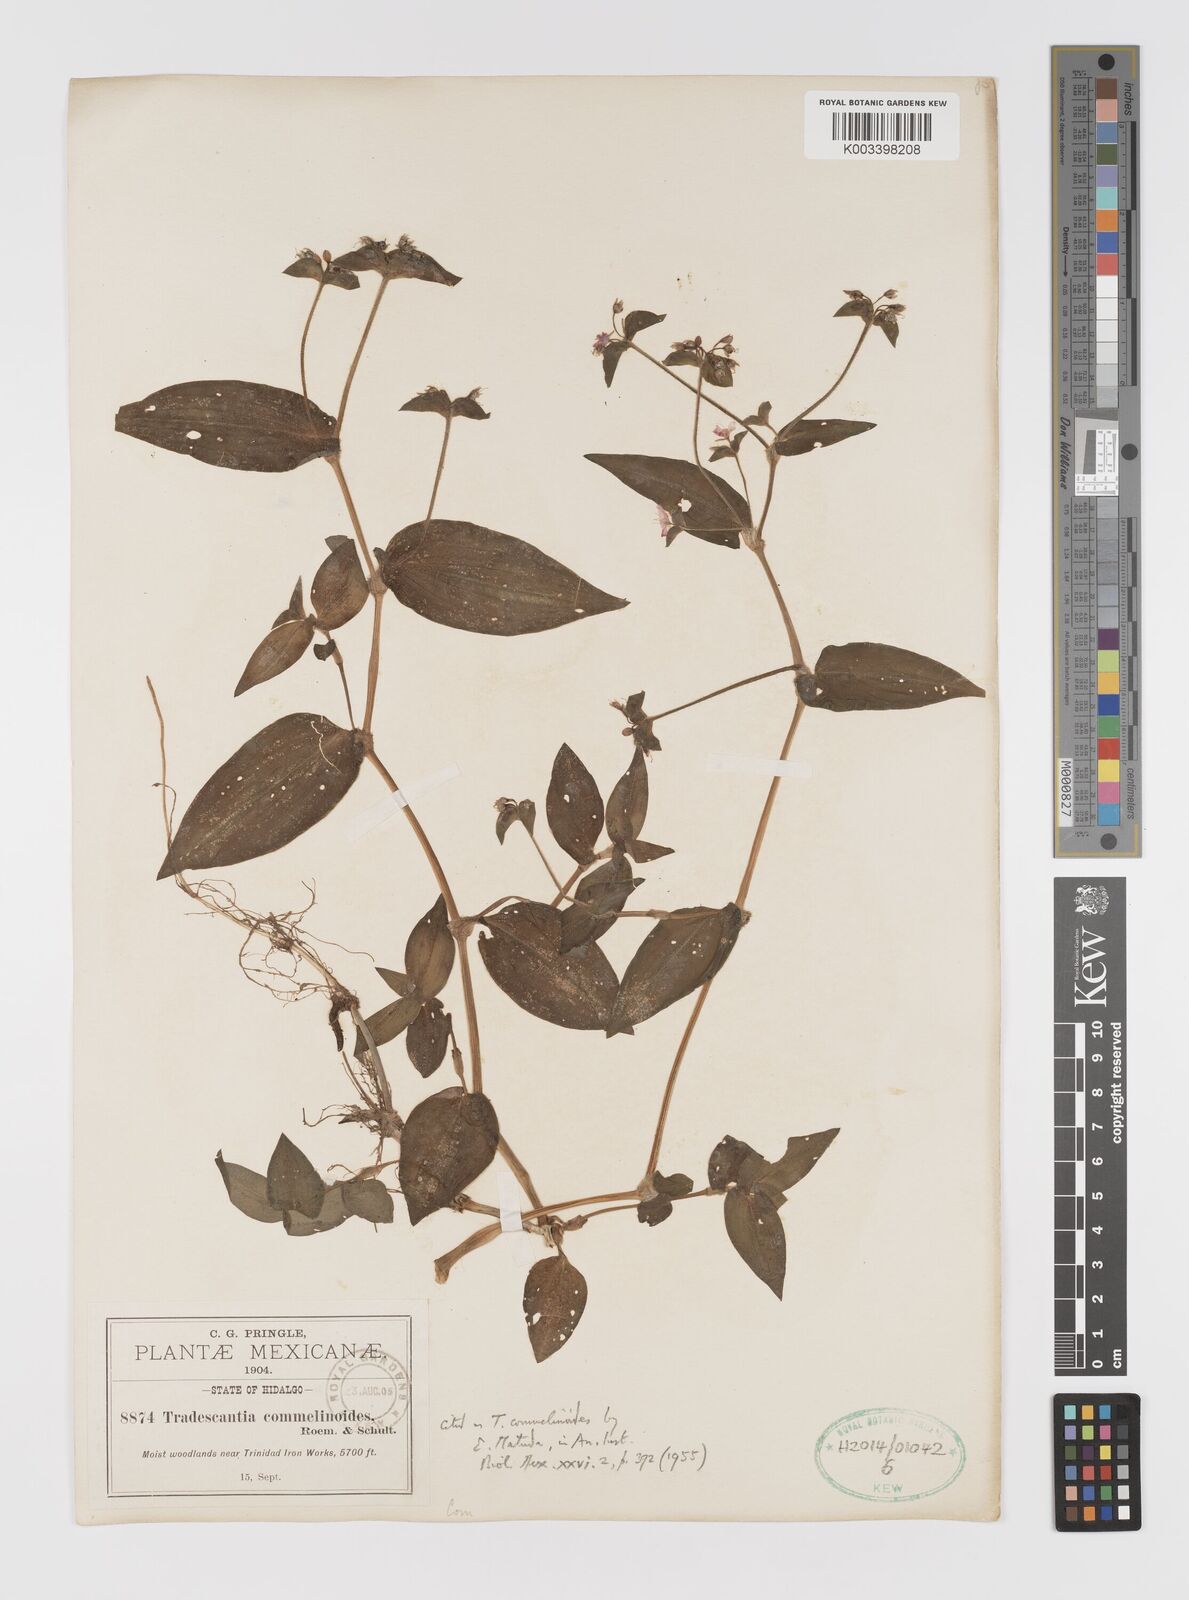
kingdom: Plantae
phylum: Tracheophyta
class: Liliopsida
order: Commelinales
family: Commelinaceae
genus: Tradescantia
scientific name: Tradescantia commelinoides
